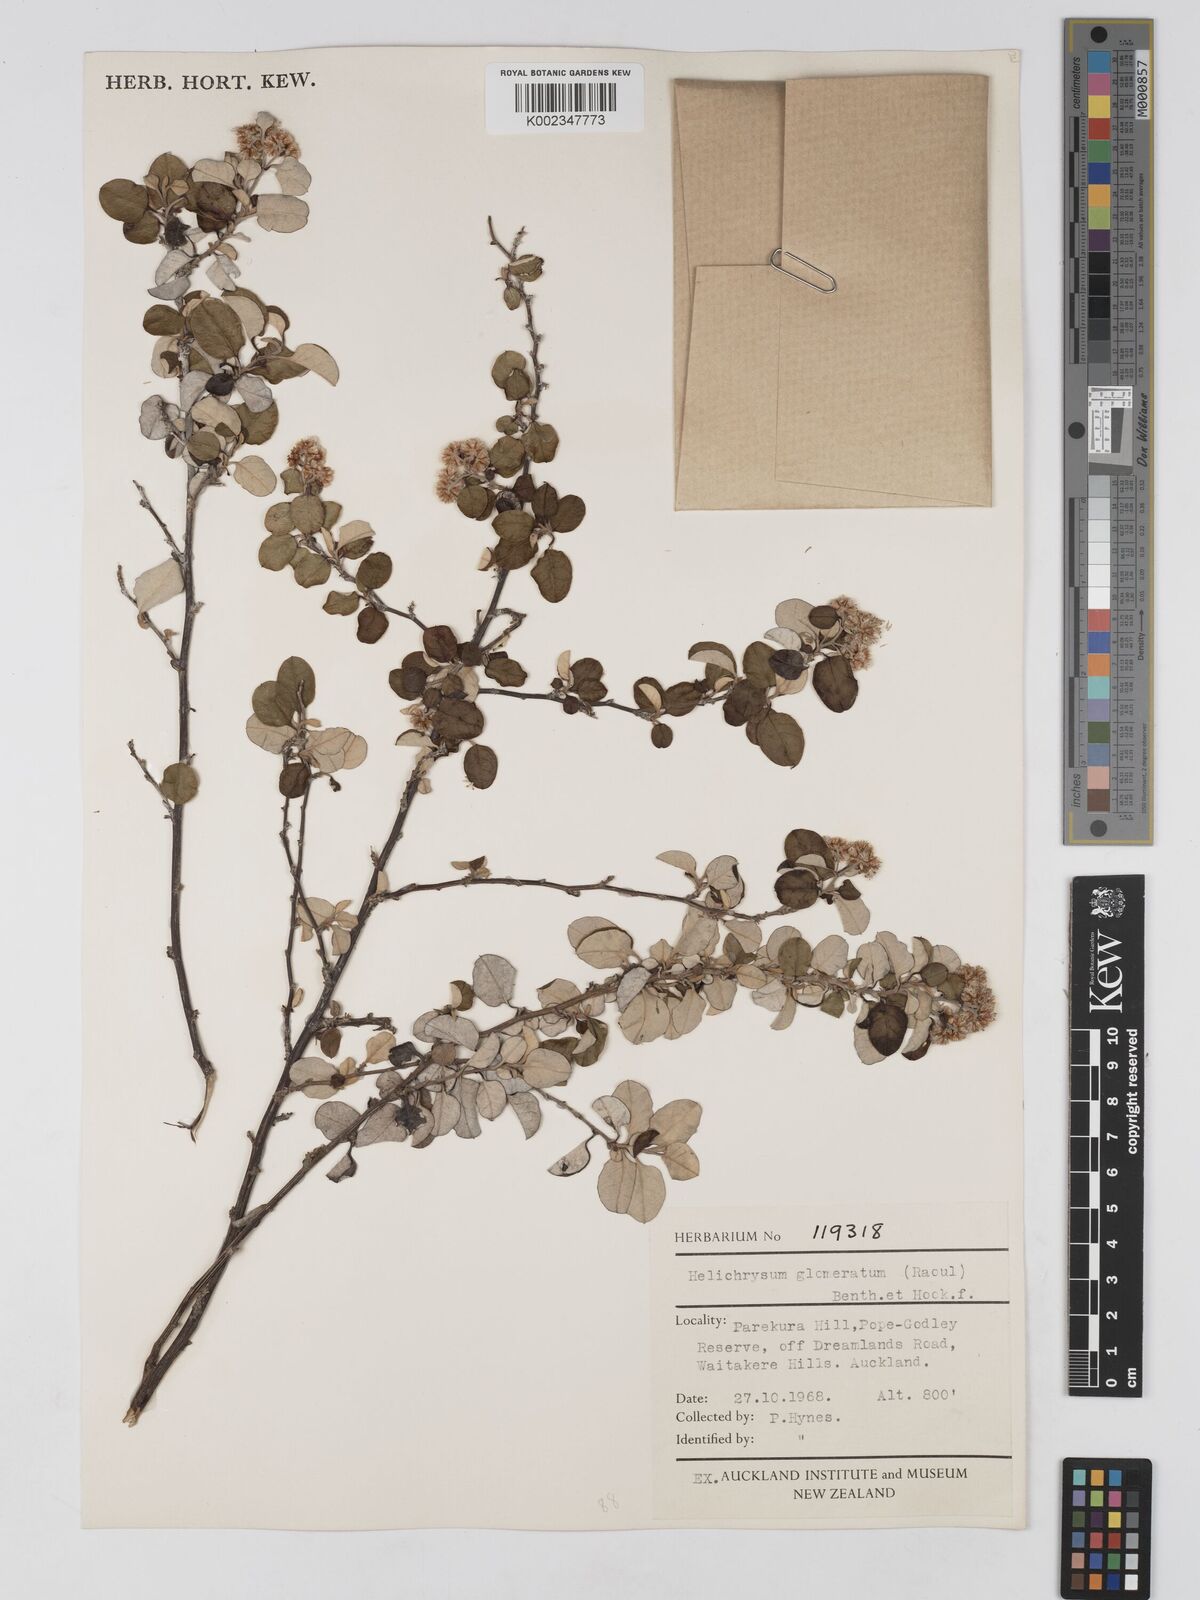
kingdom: Plantae
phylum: Tracheophyta
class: Magnoliopsida
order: Asterales
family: Asteraceae
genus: Ozothamnus
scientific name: Ozothamnus glomeratus
